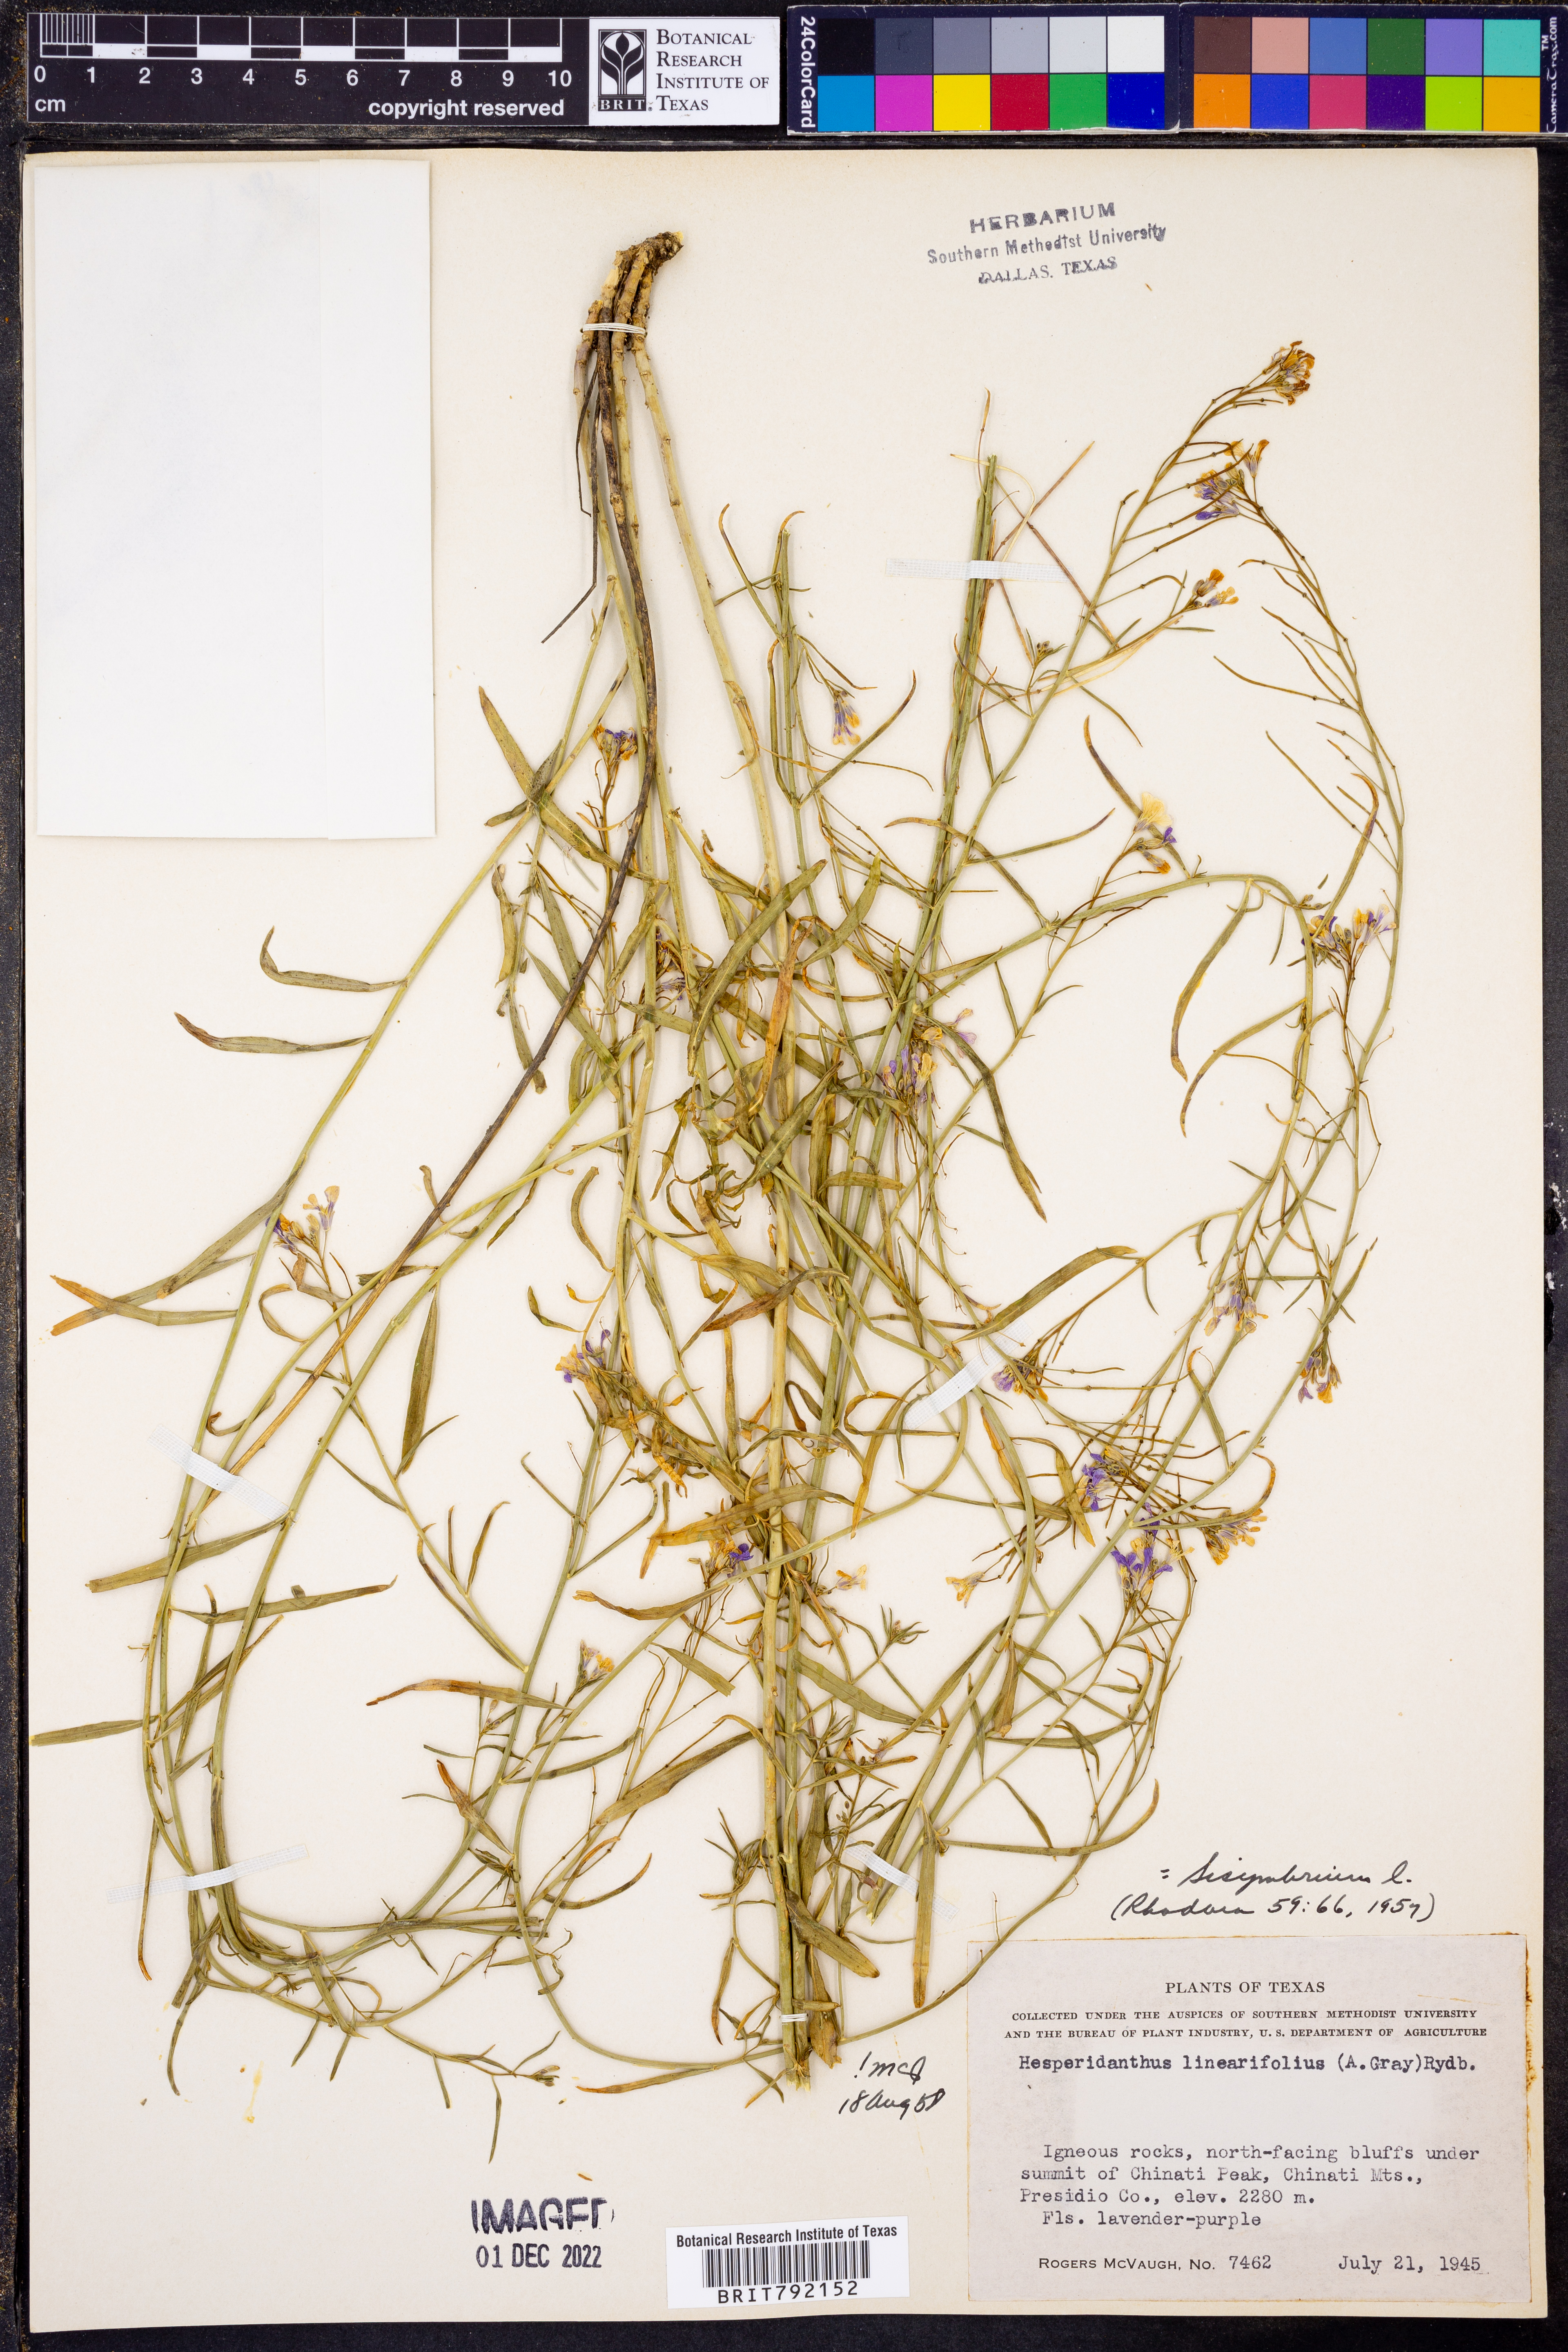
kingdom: Plantae
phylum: Tracheophyta
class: Magnoliopsida
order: Brassicales
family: Brassicaceae
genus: Hesperidanthus
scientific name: Hesperidanthus linearifolius
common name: Slim-leaf plains mustard
